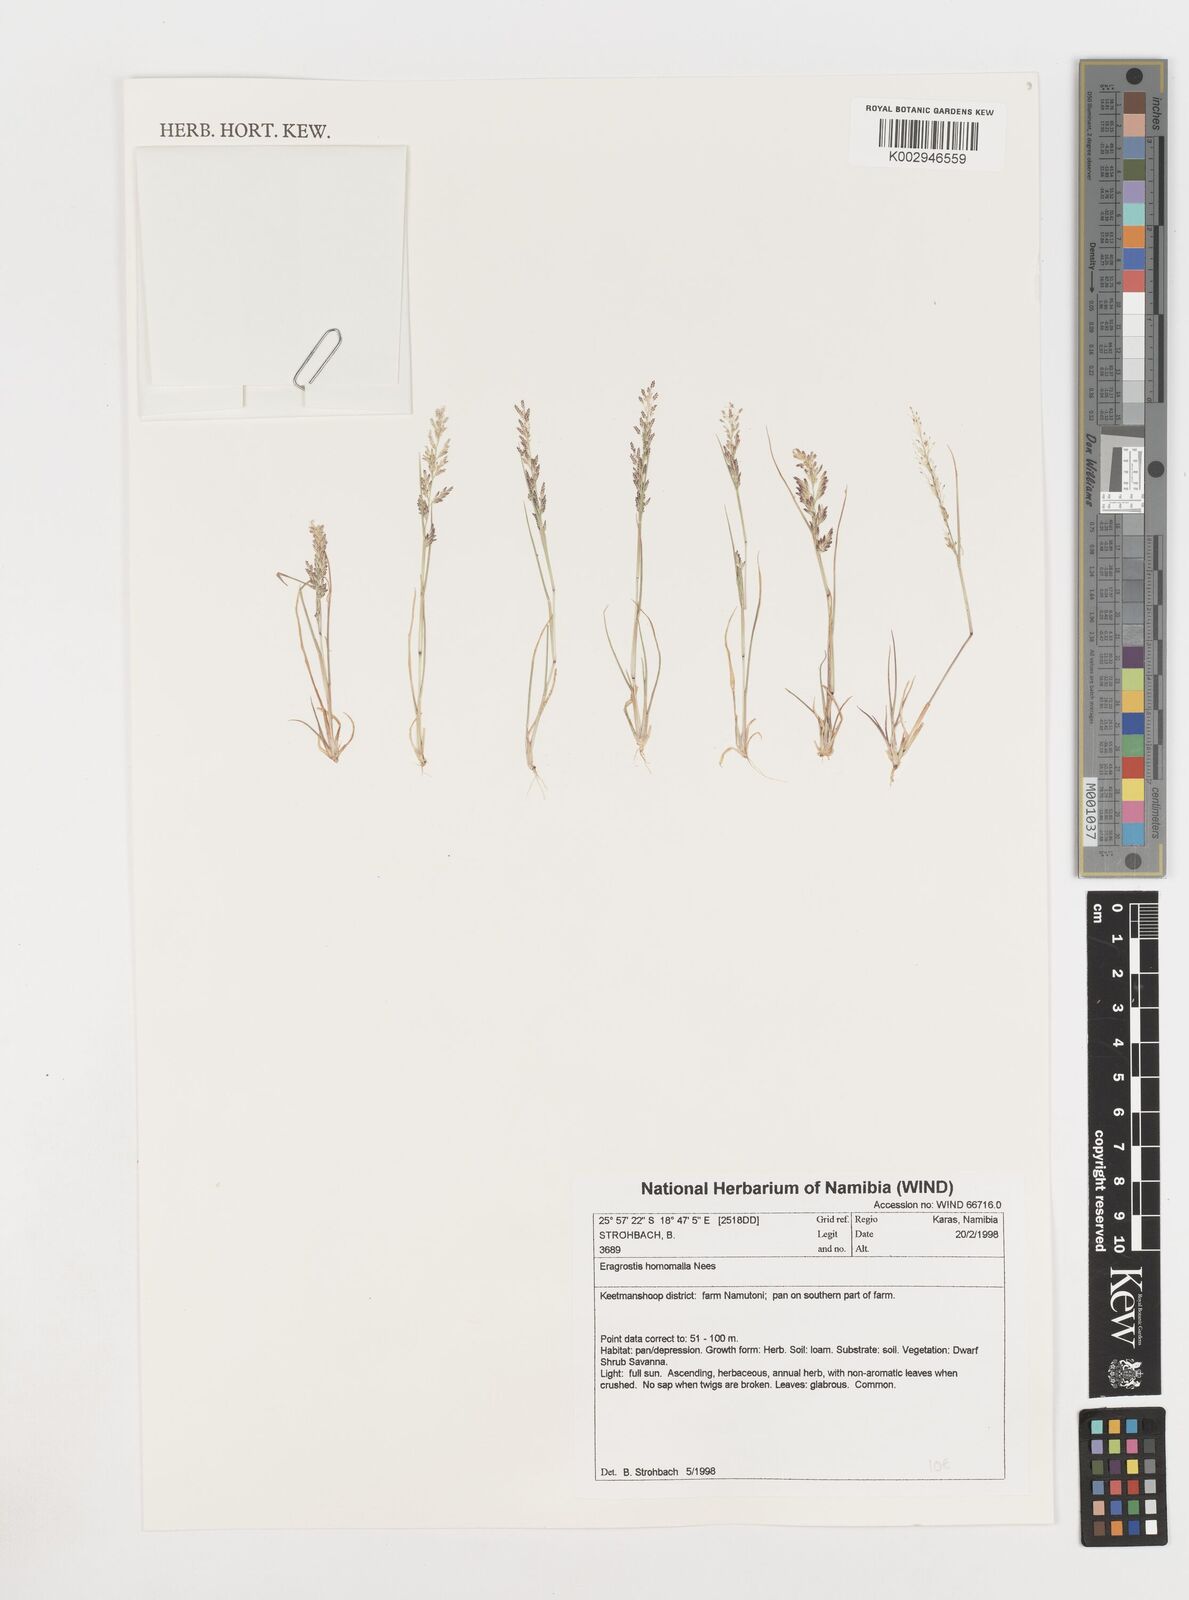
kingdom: Plantae
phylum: Tracheophyta
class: Liliopsida
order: Poales
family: Poaceae
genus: Eragrostis
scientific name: Eragrostis homomalla
